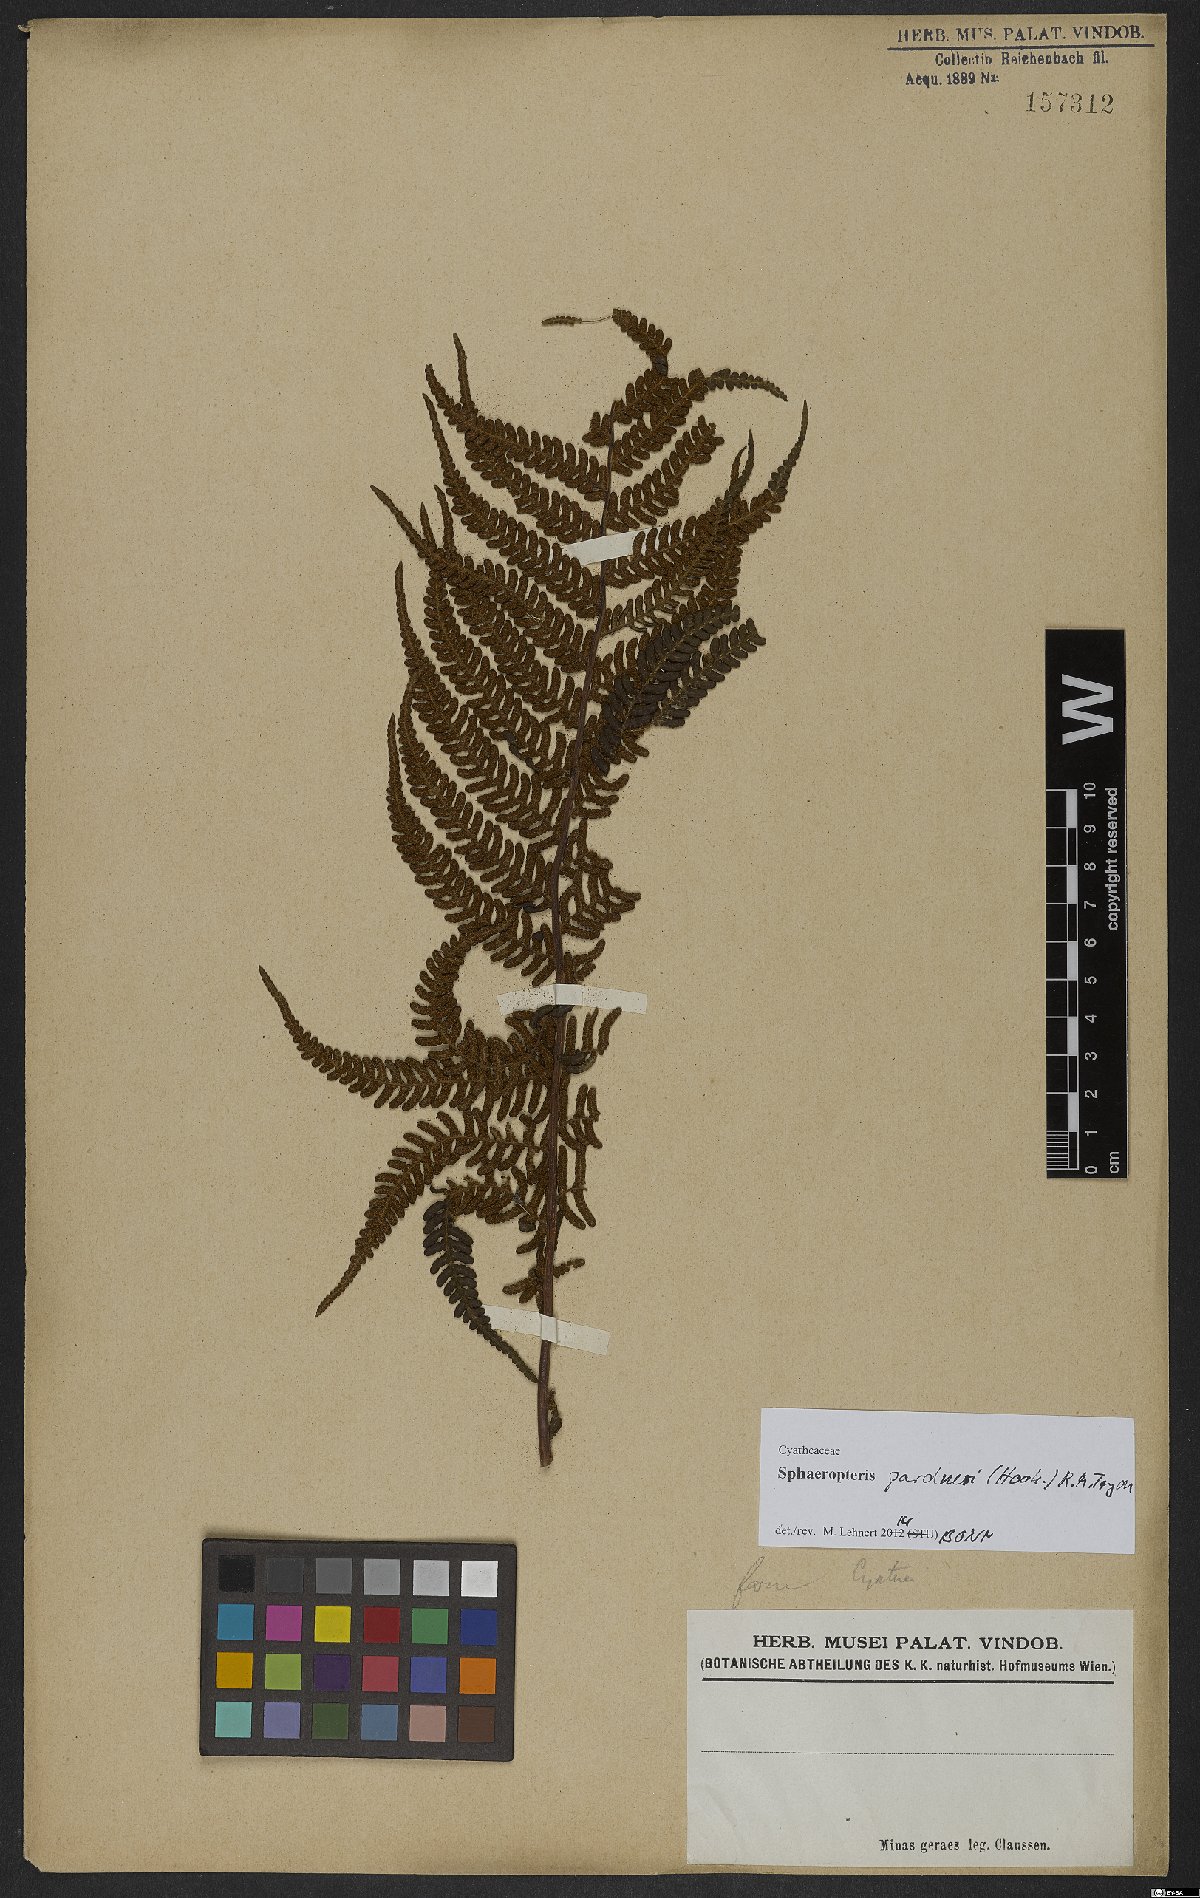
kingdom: Plantae
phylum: Tracheophyta
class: Polypodiopsida
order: Cyatheales
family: Cyatheaceae
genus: Sphaeropteris
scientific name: Sphaeropteris gardneri
